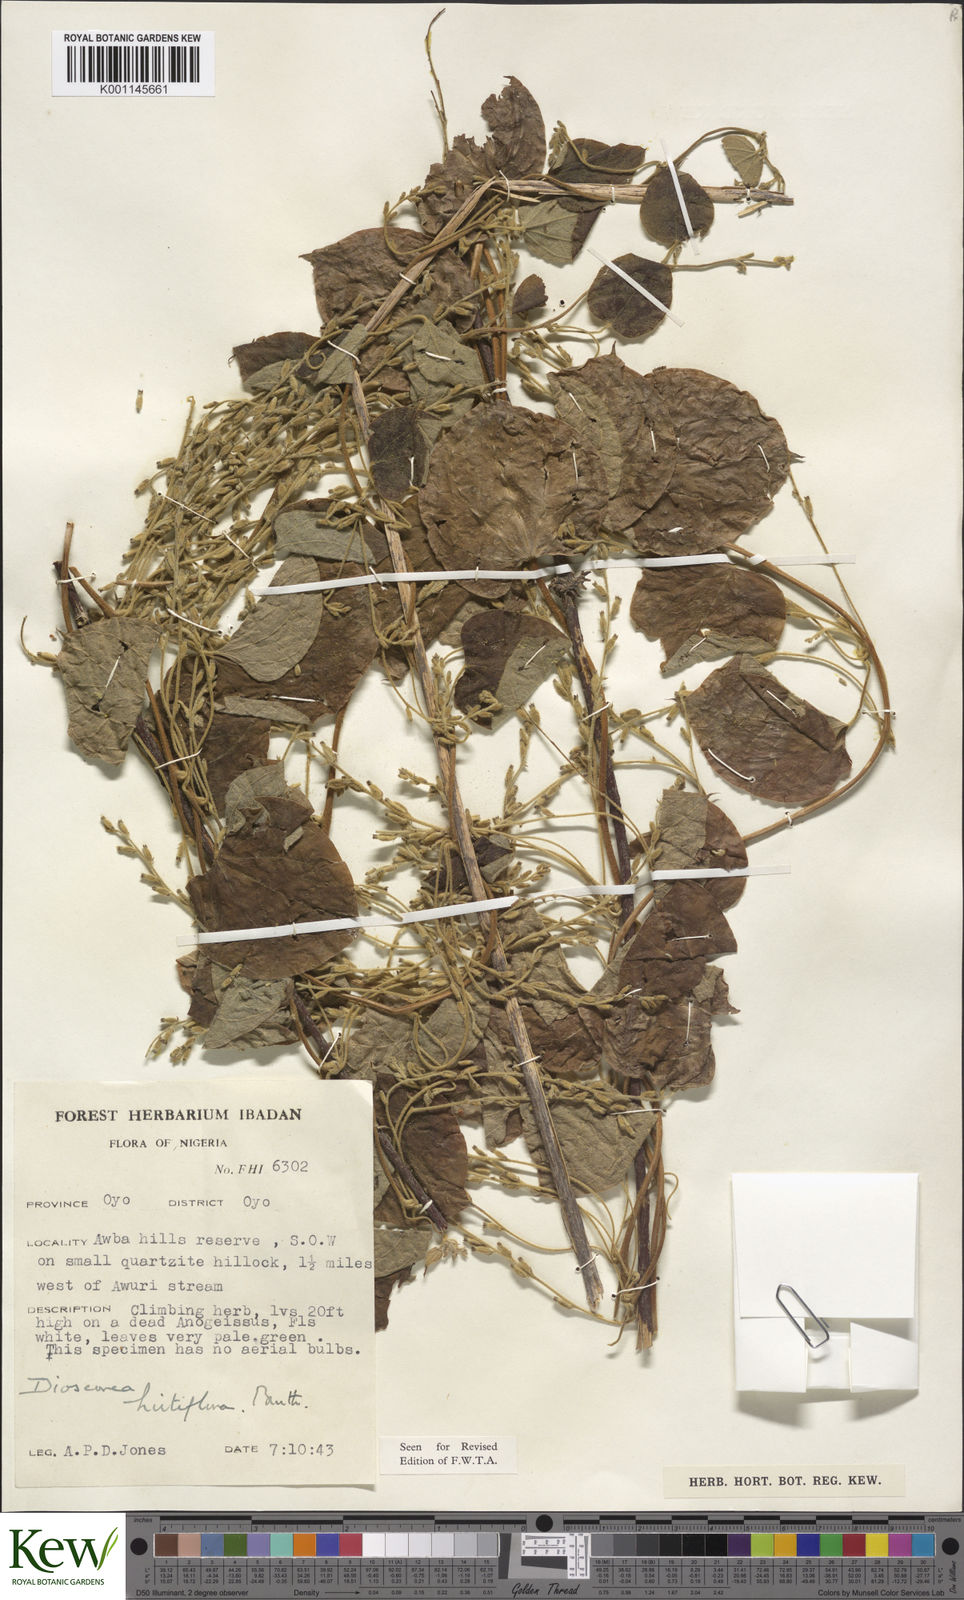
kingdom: Plantae
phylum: Tracheophyta
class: Liliopsida
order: Dioscoreales
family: Dioscoreaceae
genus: Dioscorea
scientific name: Dioscorea hirtiflora
